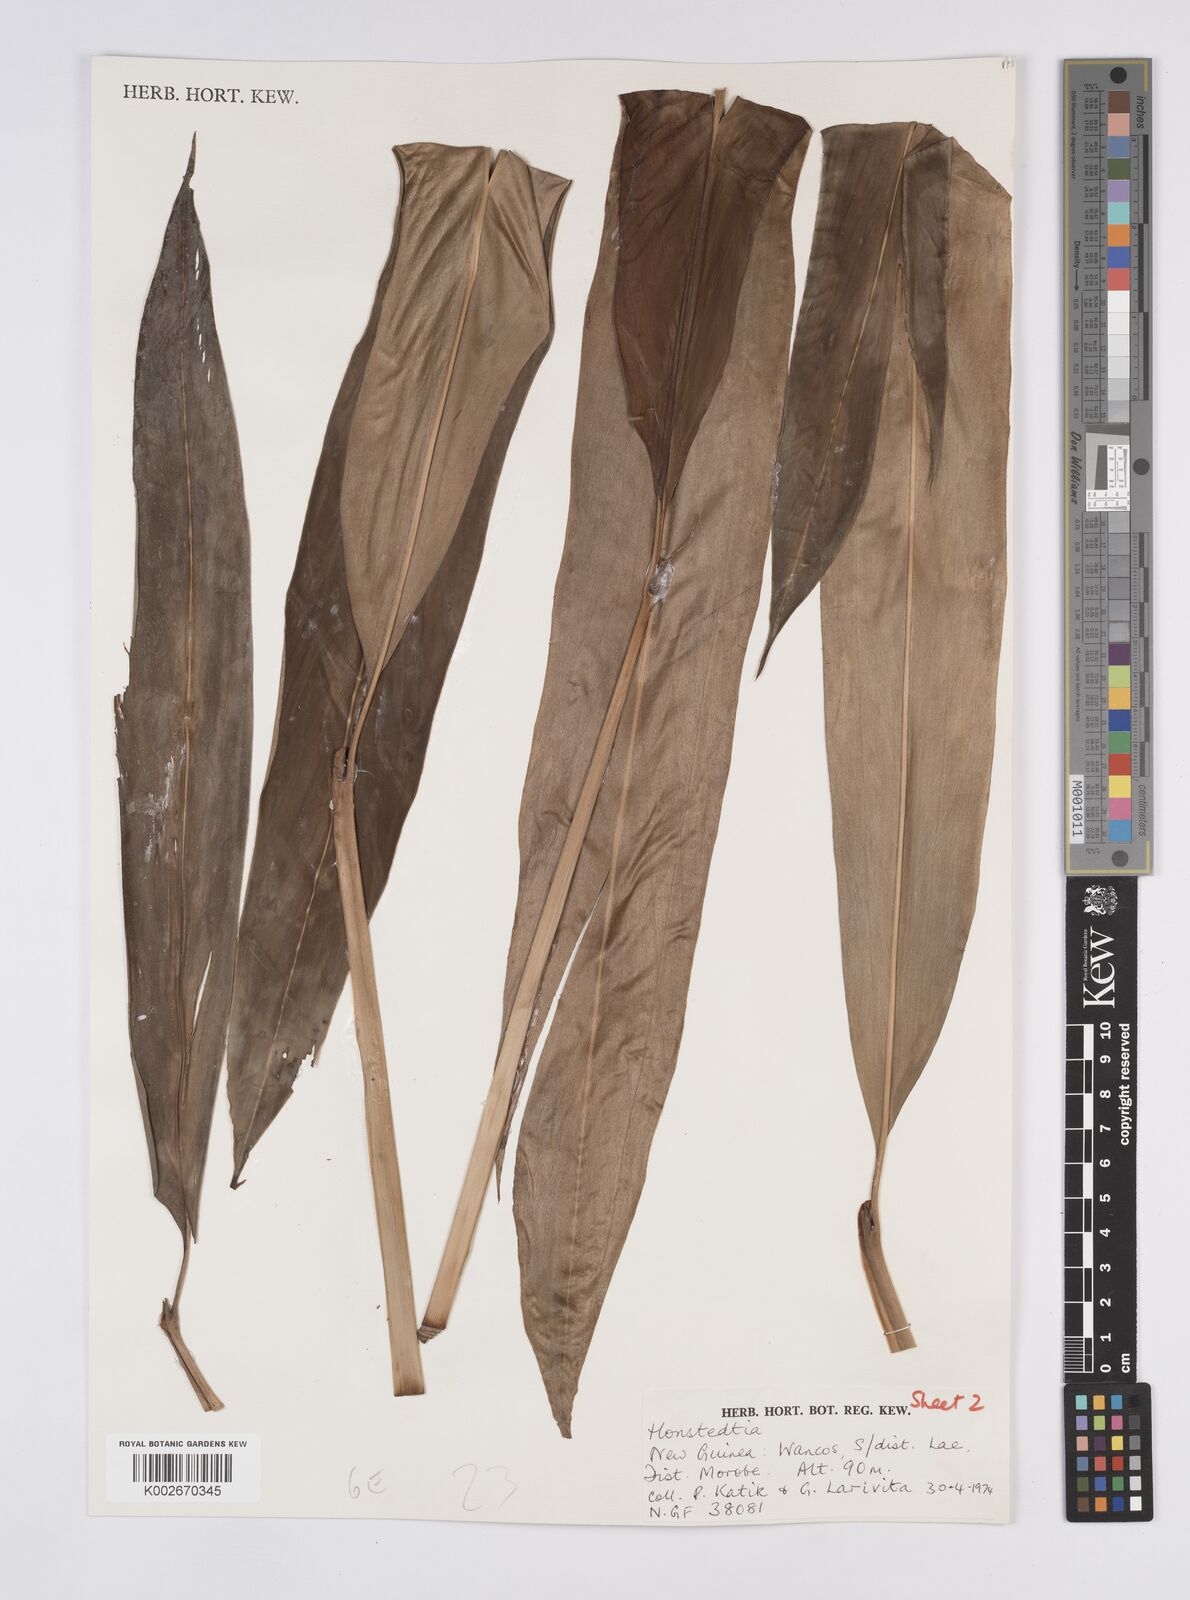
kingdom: Plantae
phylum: Tracheophyta
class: Liliopsida
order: Zingiberales
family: Zingiberaceae
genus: Hornstedtia
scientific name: Hornstedtia
